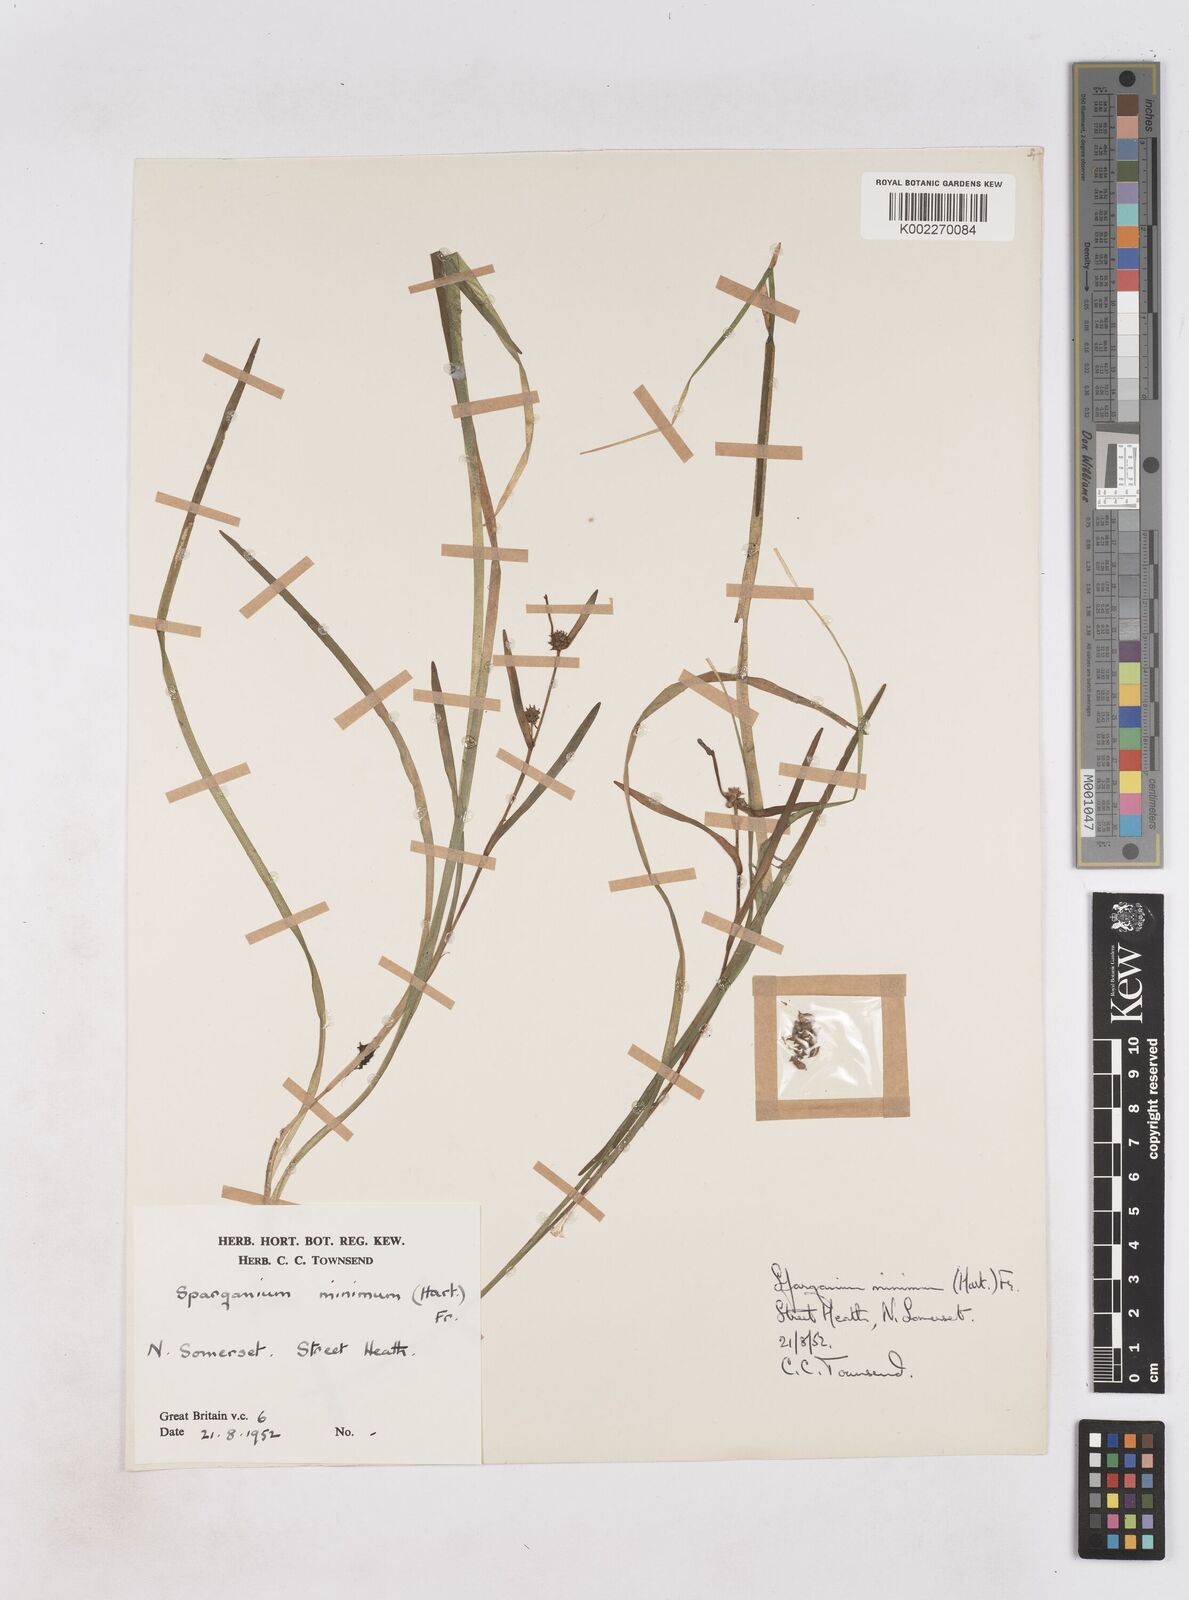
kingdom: Plantae
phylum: Tracheophyta
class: Liliopsida
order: Poales
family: Typhaceae
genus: Sparganium
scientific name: Sparganium natans
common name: Least bur-reed
